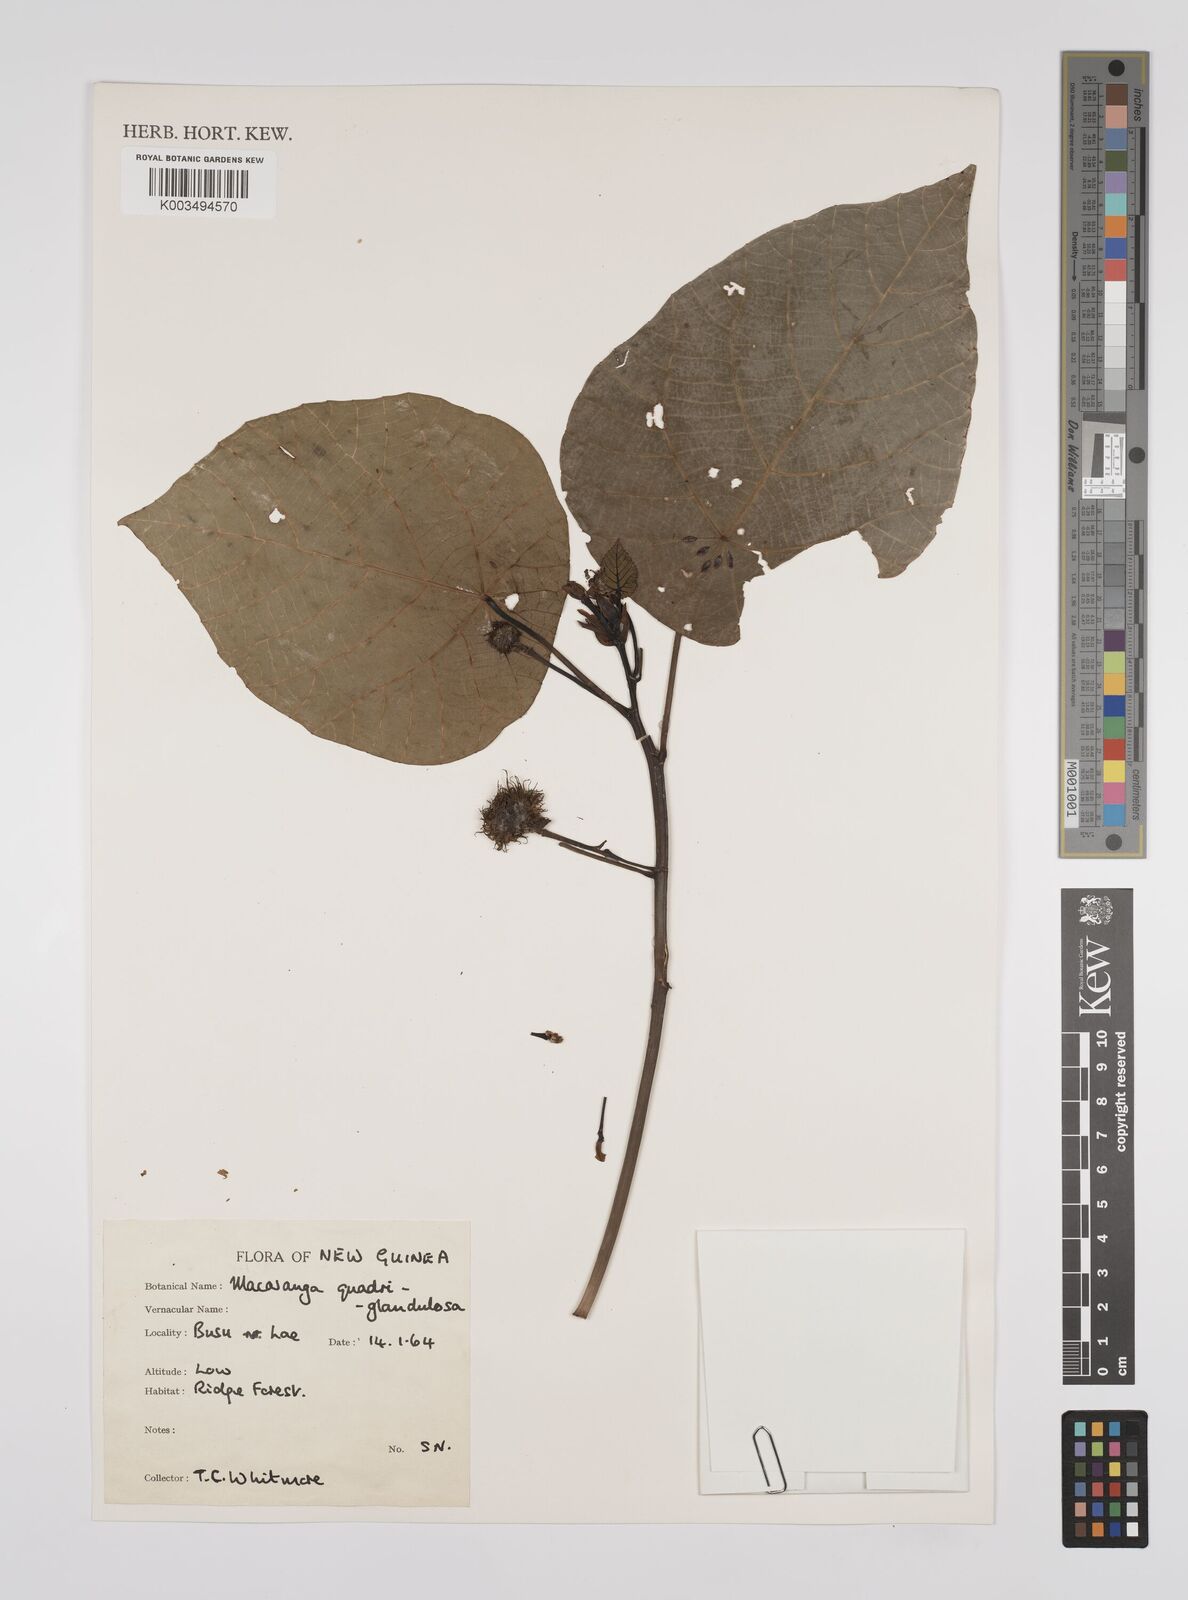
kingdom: Plantae
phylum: Tracheophyta
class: Magnoliopsida
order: Malpighiales
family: Euphorbiaceae
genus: Macaranga
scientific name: Macaranga quadriglandulosa
